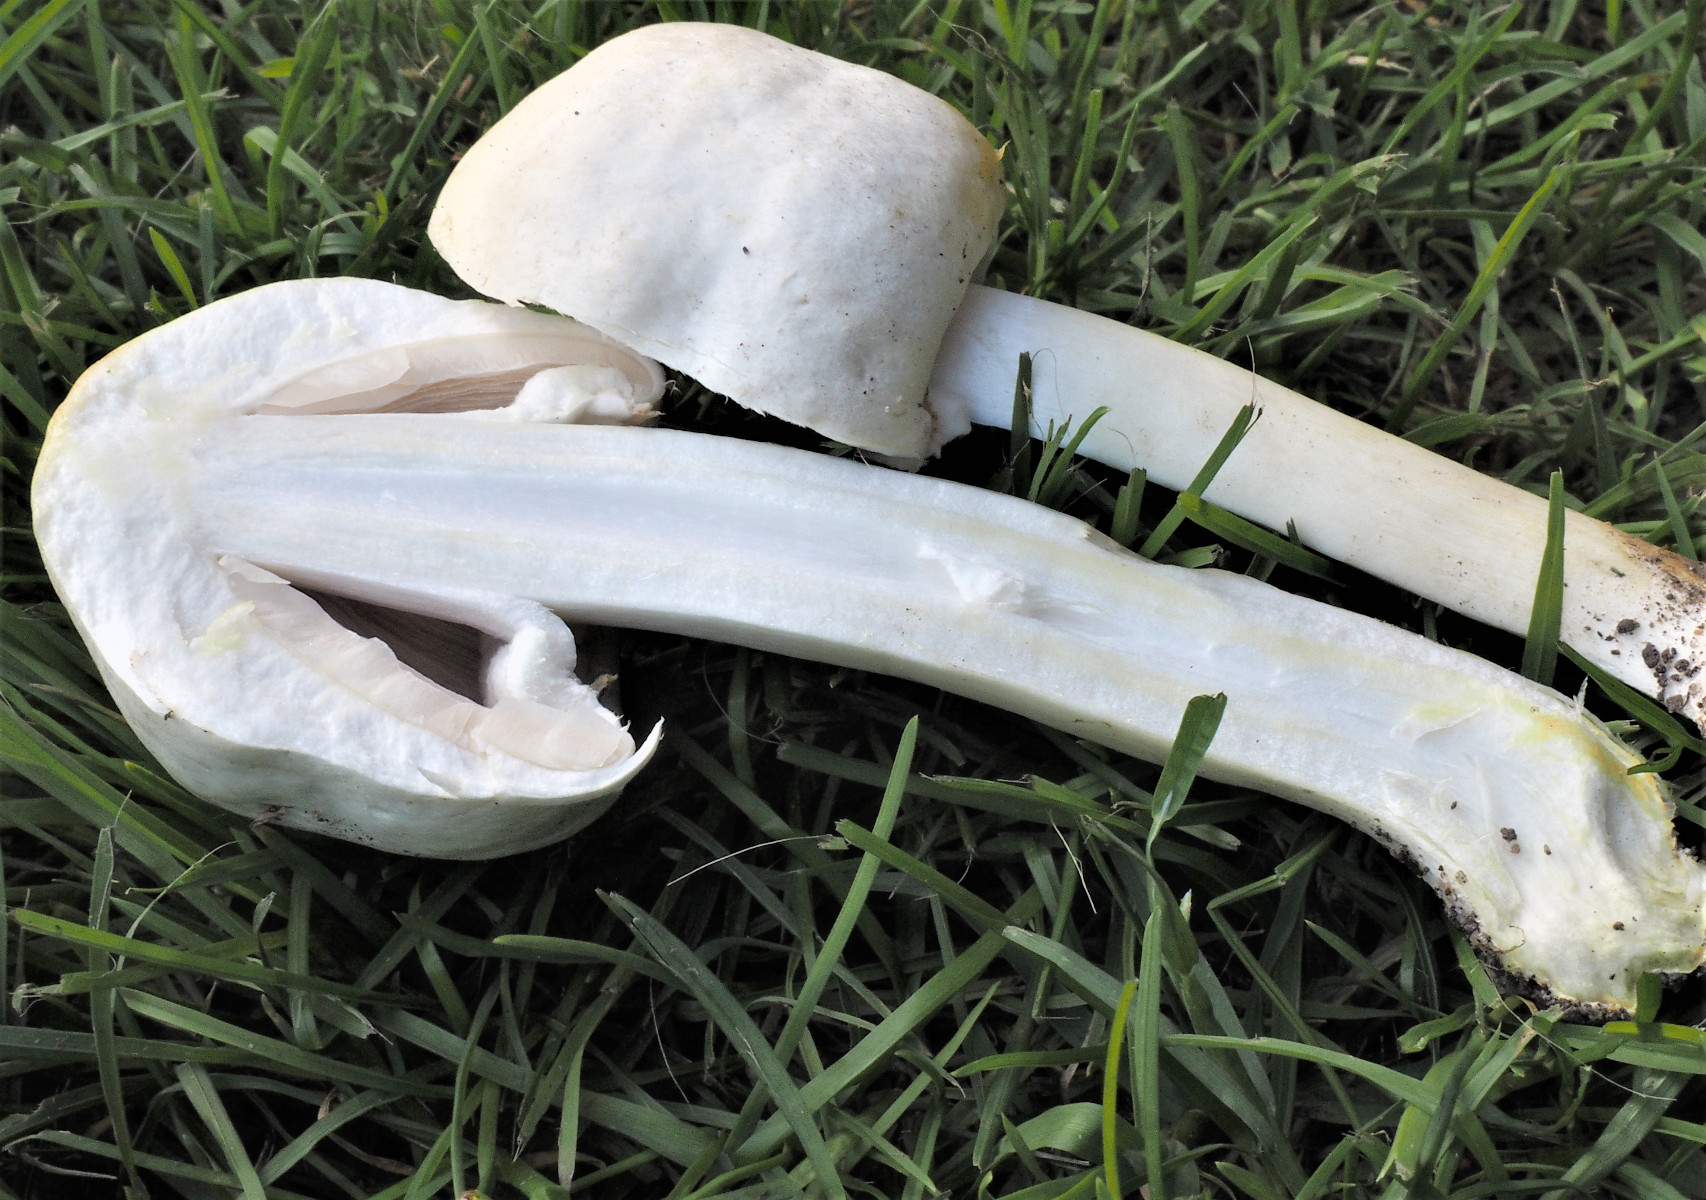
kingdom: Fungi
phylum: Basidiomycota
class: Agaricomycetes
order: Agaricales
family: Agaricaceae
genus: Agaricus
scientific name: Agaricus xanthodermus
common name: karbol-champignon
